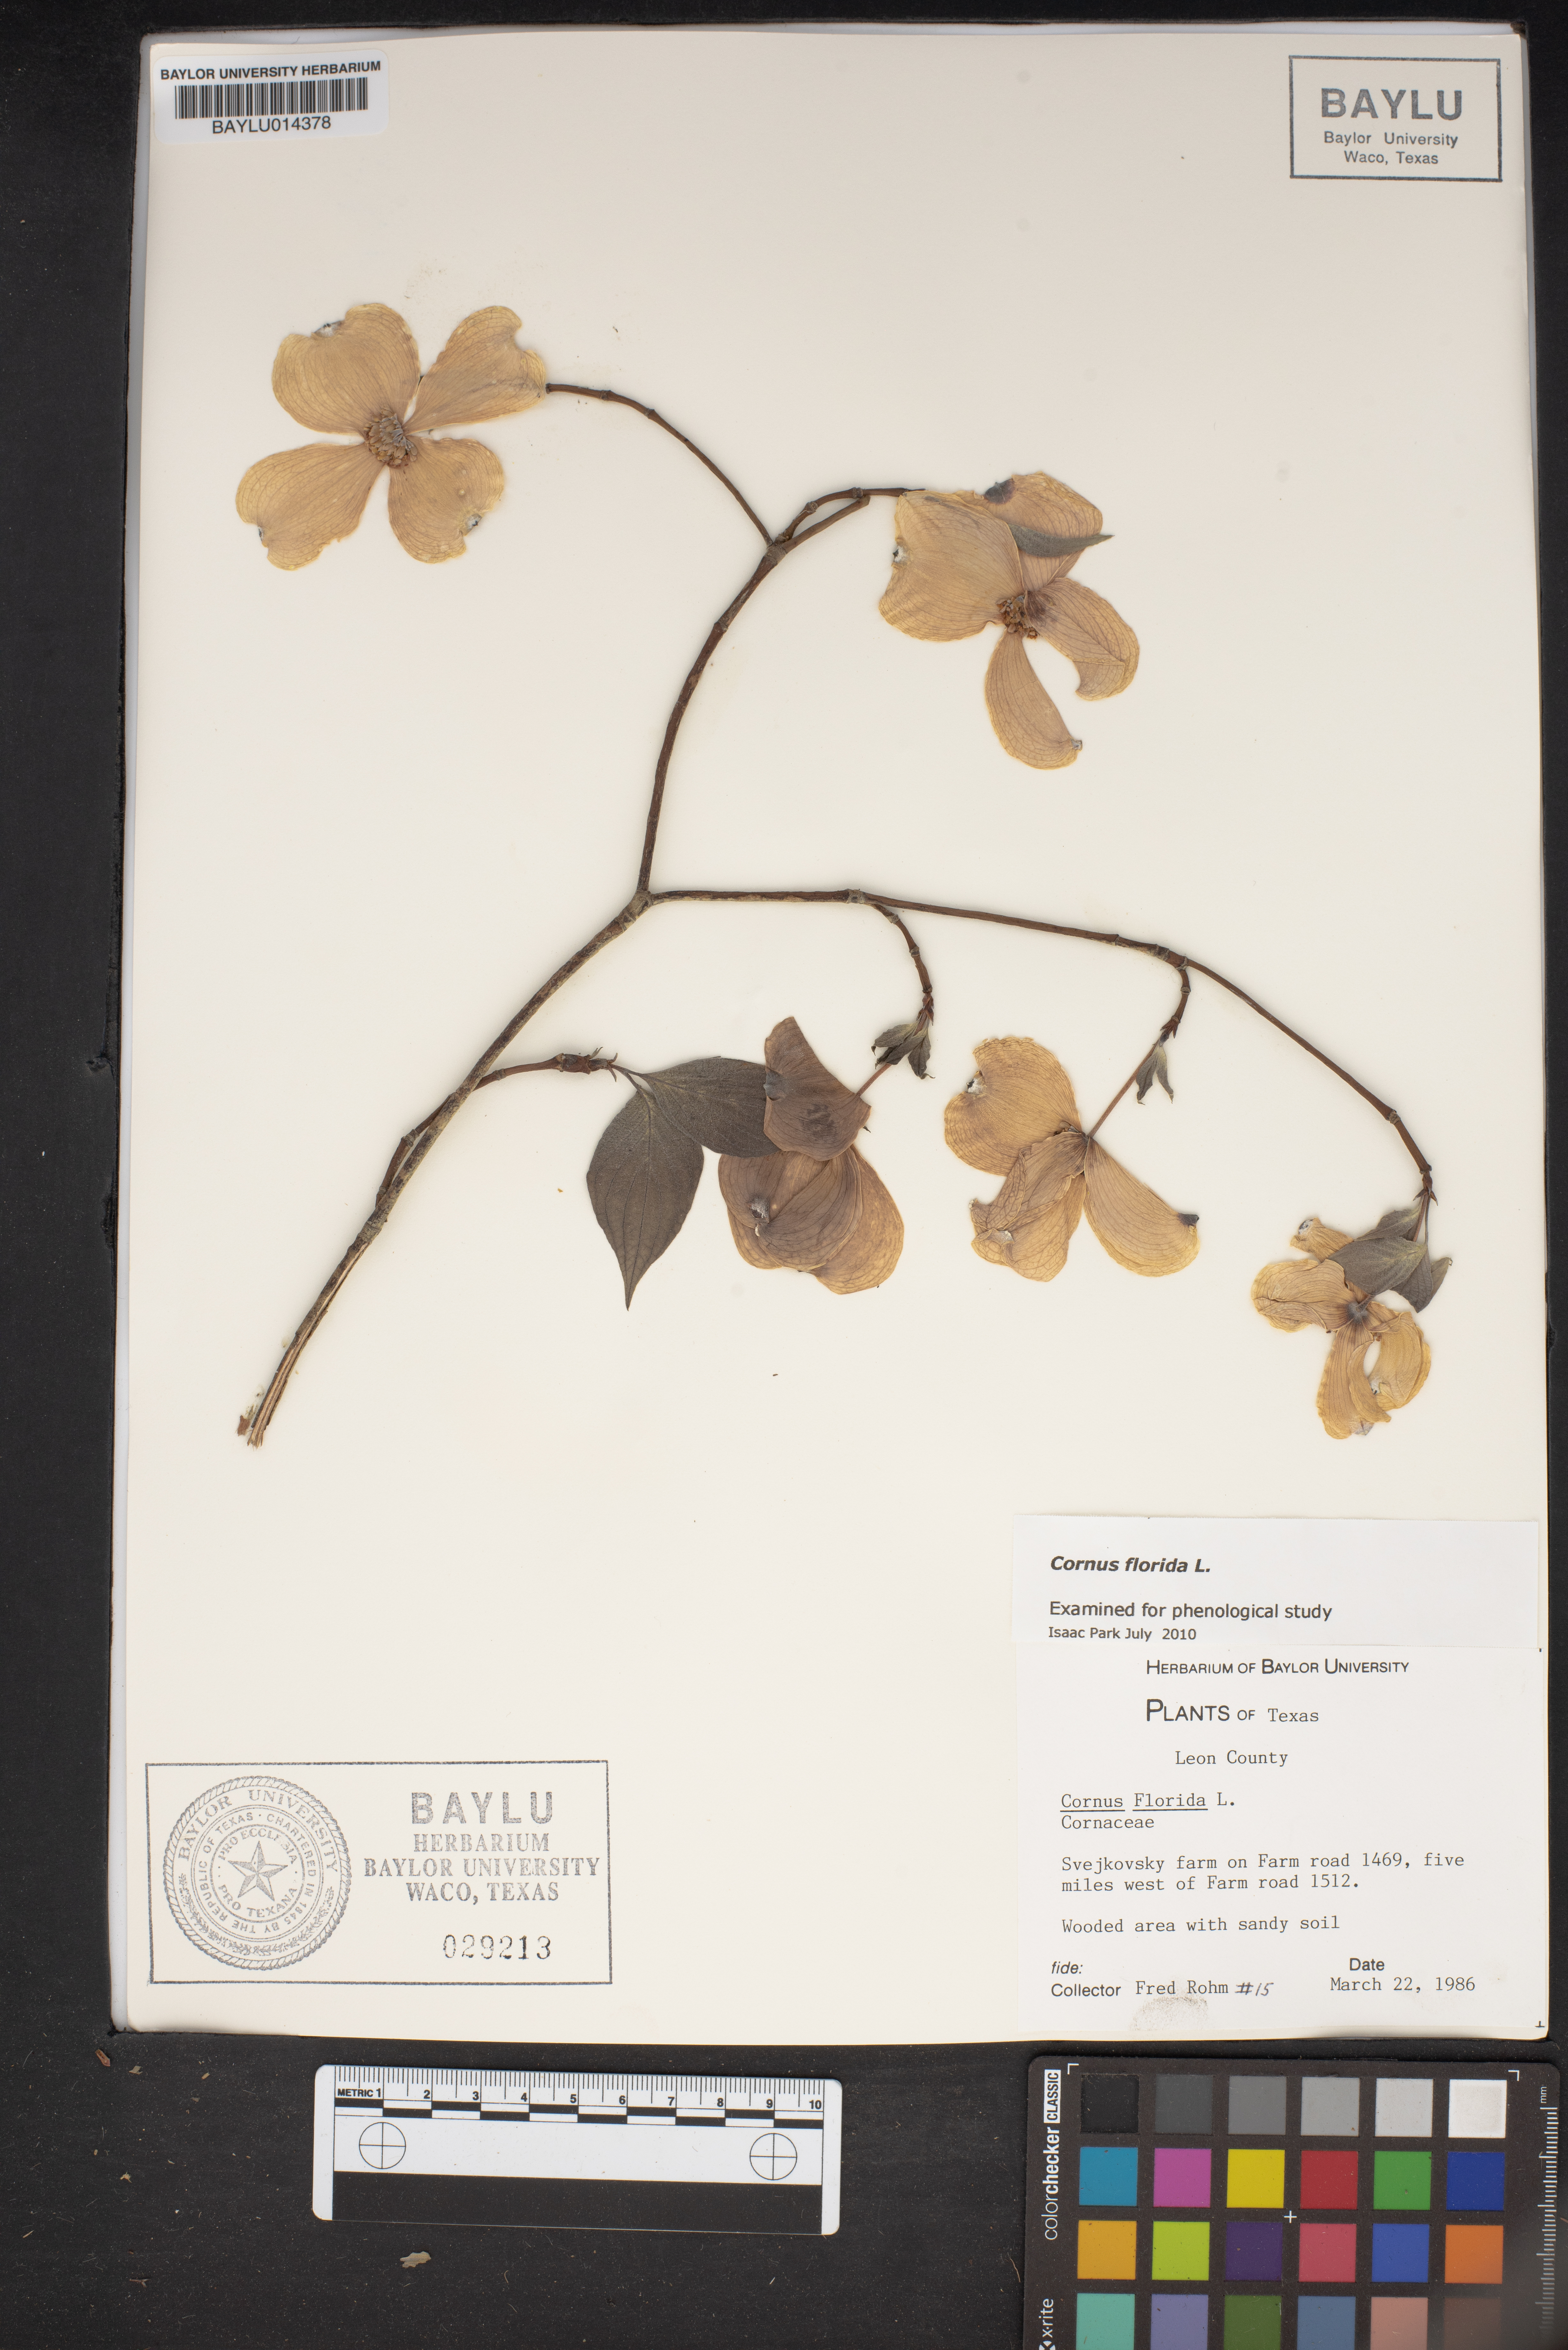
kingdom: Plantae
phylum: Tracheophyta
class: Magnoliopsida
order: Cornales
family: Cornaceae
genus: Cornus
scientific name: Cornus florida
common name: Flowering dogwood
